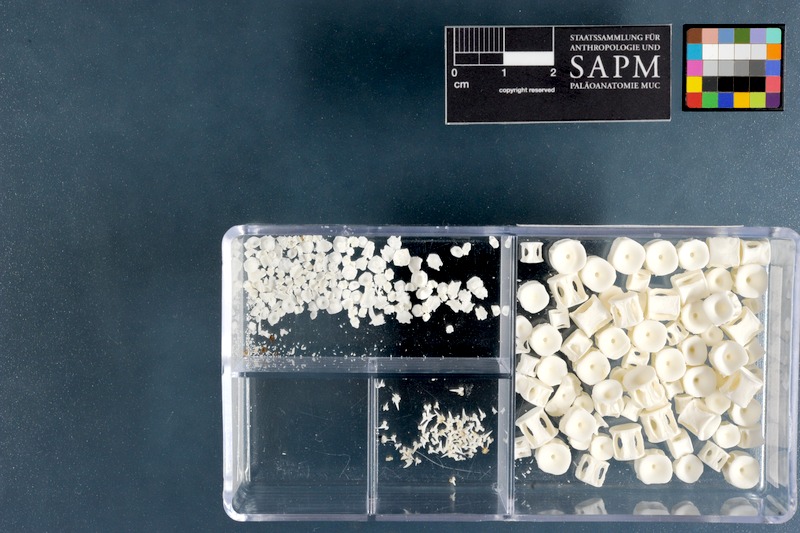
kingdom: Animalia
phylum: Chordata
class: Elasmobranchii
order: Carcharhiniformes
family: Scyliorhinidae
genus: Poroderma
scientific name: Poroderma pantherinum
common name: Leopard catshark
